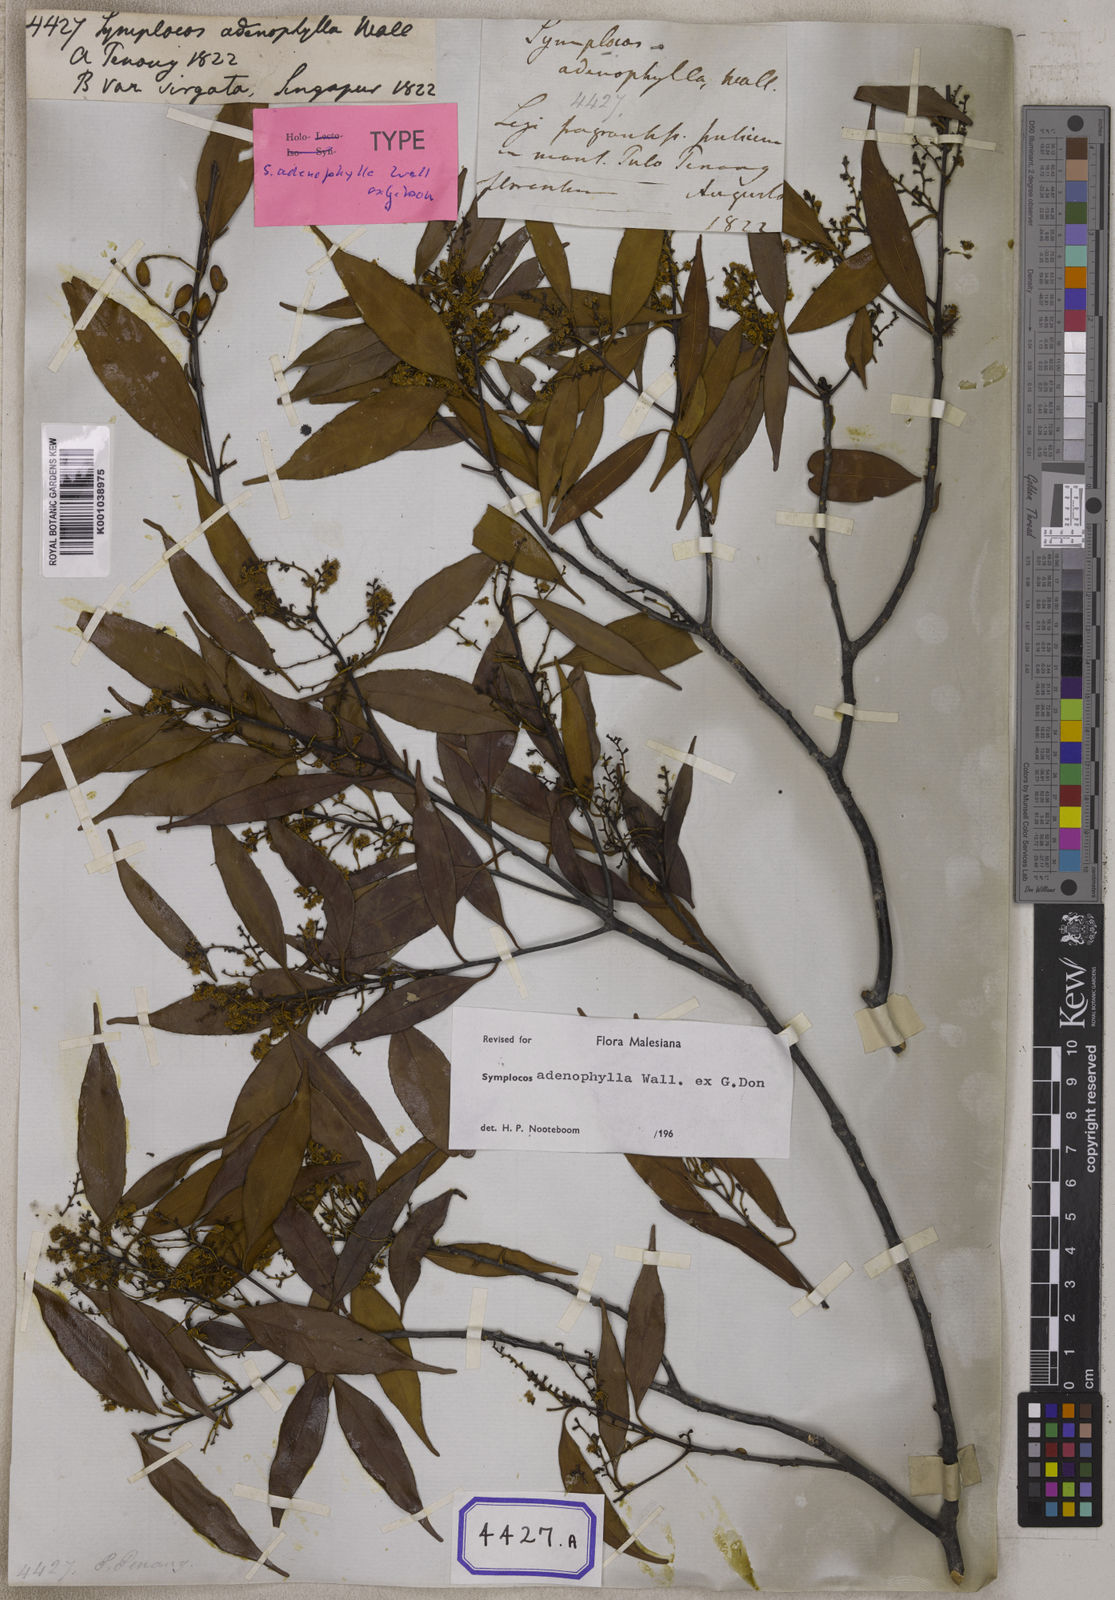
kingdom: Plantae
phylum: Tracheophyta
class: Magnoliopsida
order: Ericales
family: Symplocaceae
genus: Symplocos
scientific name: Symplocos
